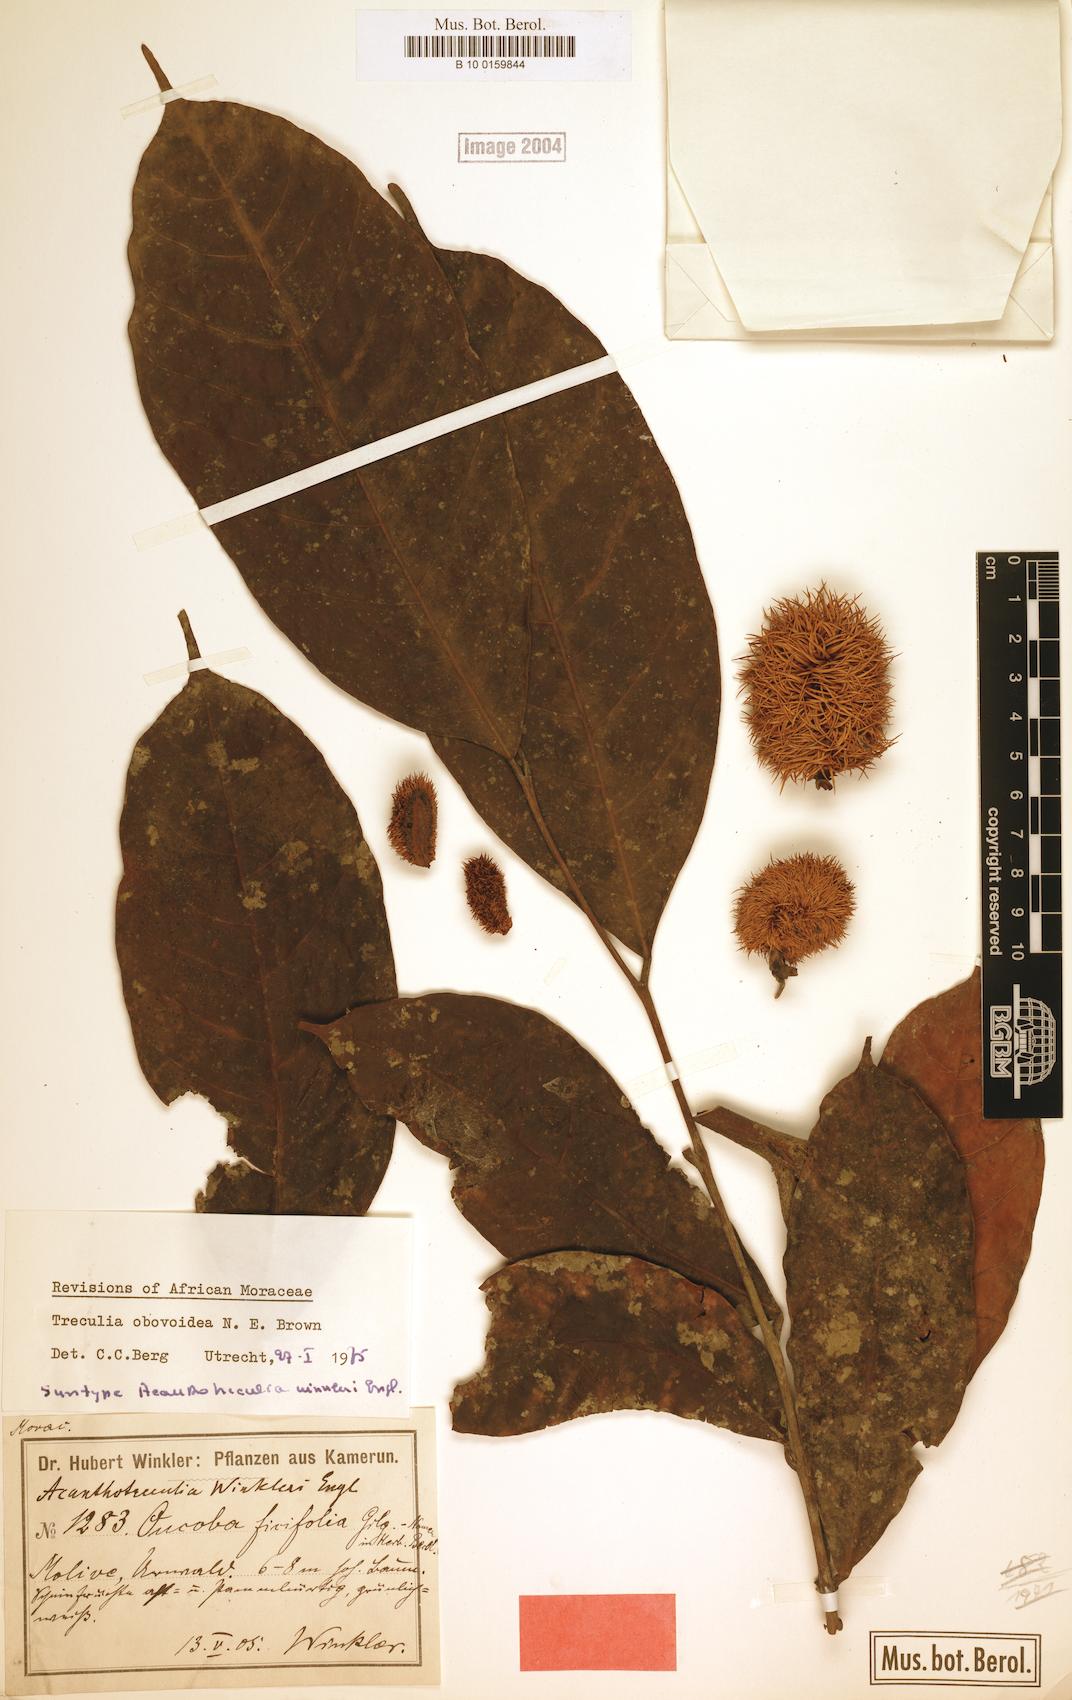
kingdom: Plantae
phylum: Tracheophyta
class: Magnoliopsida
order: Rosales
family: Moraceae
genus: Treculia
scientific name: Treculia obovoidea
